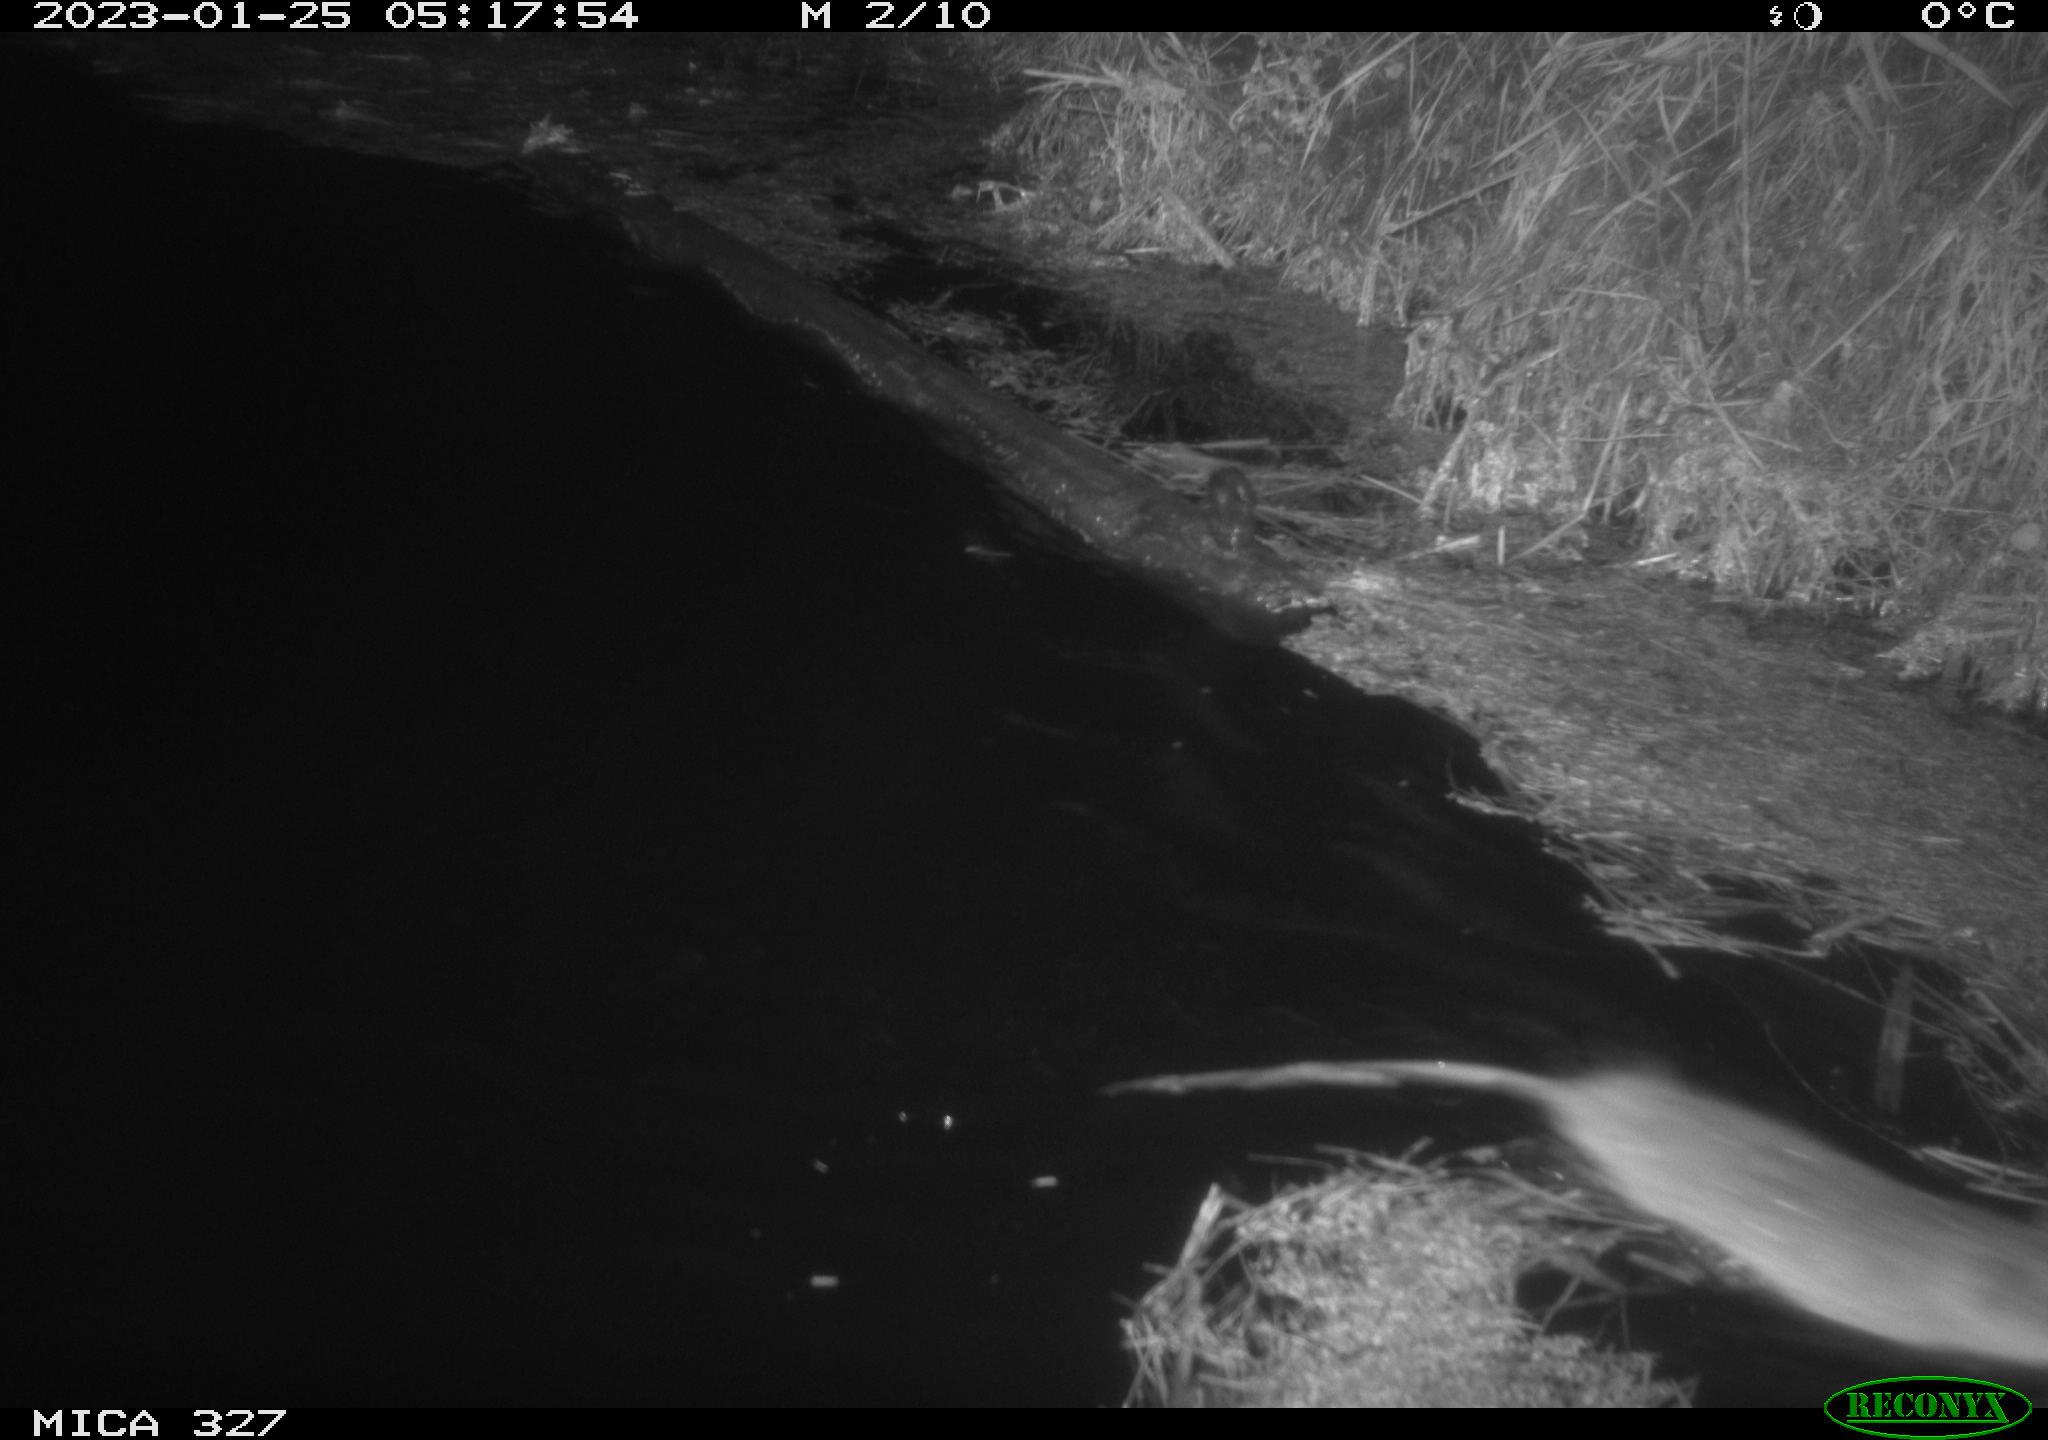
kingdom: Animalia
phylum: Chordata
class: Mammalia
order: Rodentia
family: Cricetidae
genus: Ondatra
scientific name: Ondatra zibethicus
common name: Muskrat
